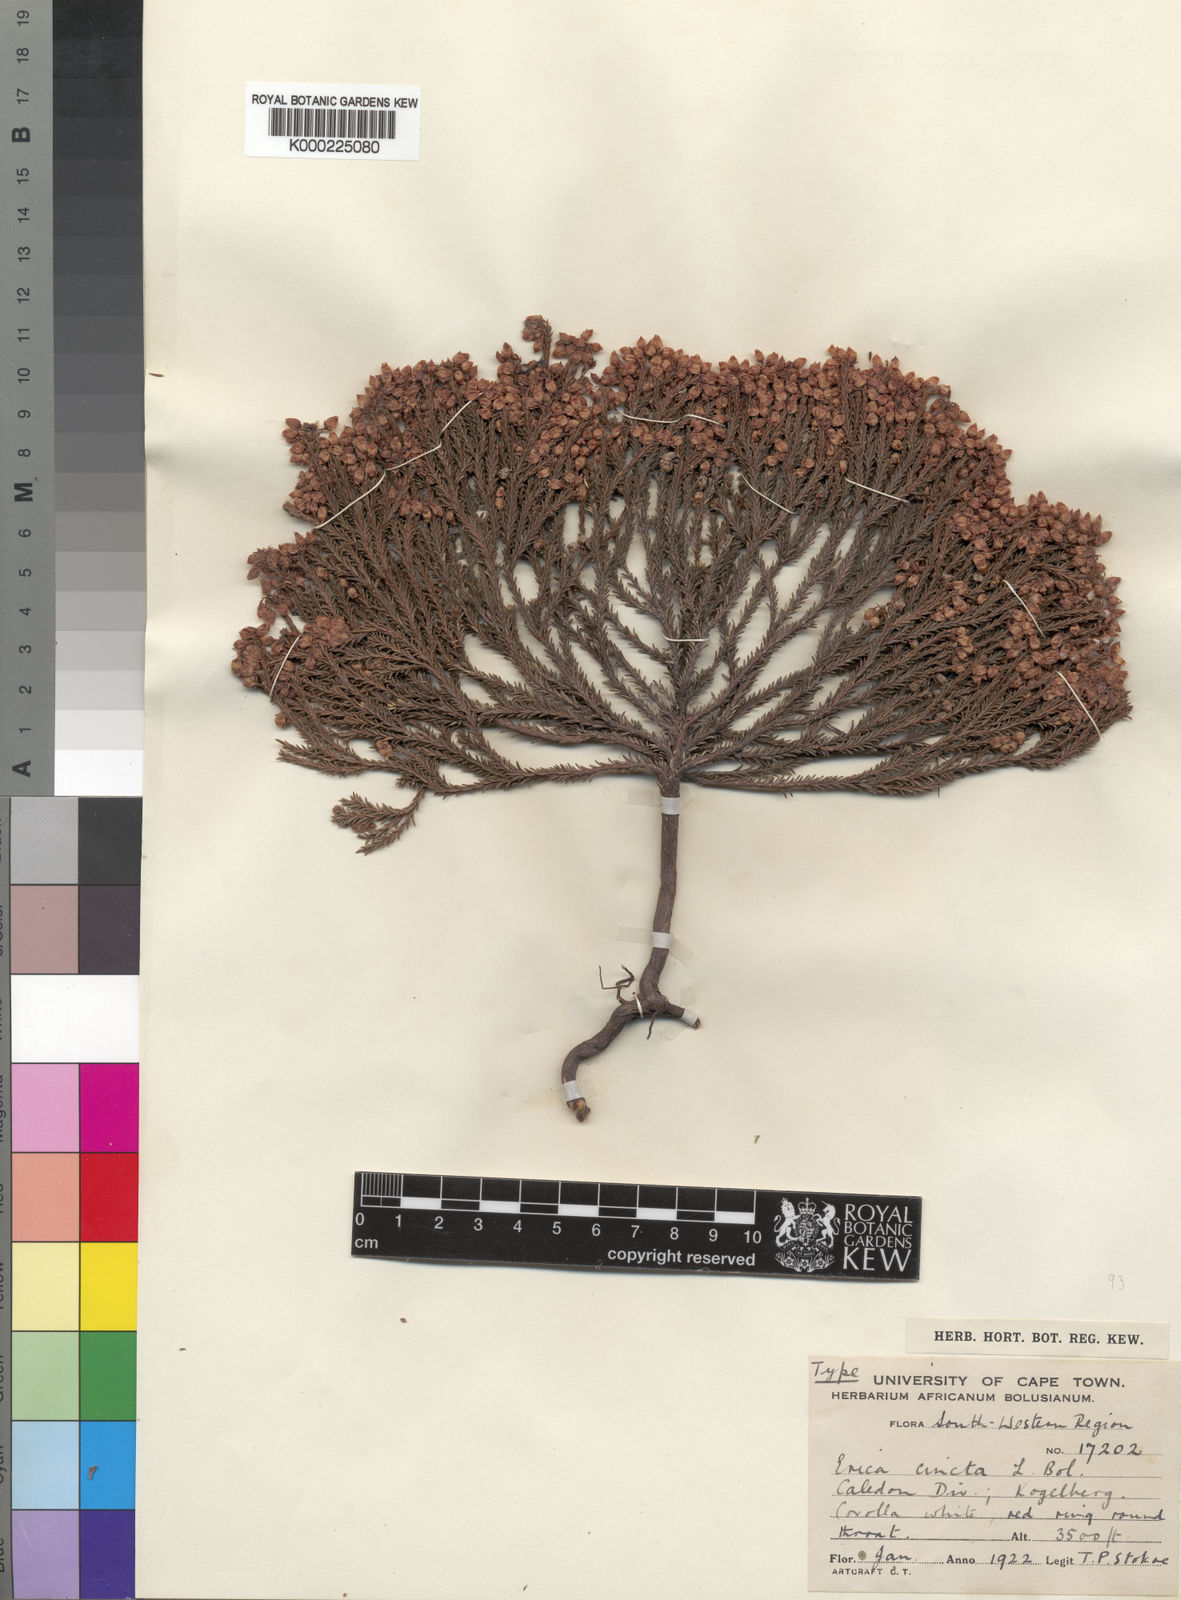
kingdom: Plantae
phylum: Tracheophyta
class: Magnoliopsida
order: Ericales
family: Ericaceae
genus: Erica
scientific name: Erica cincta
